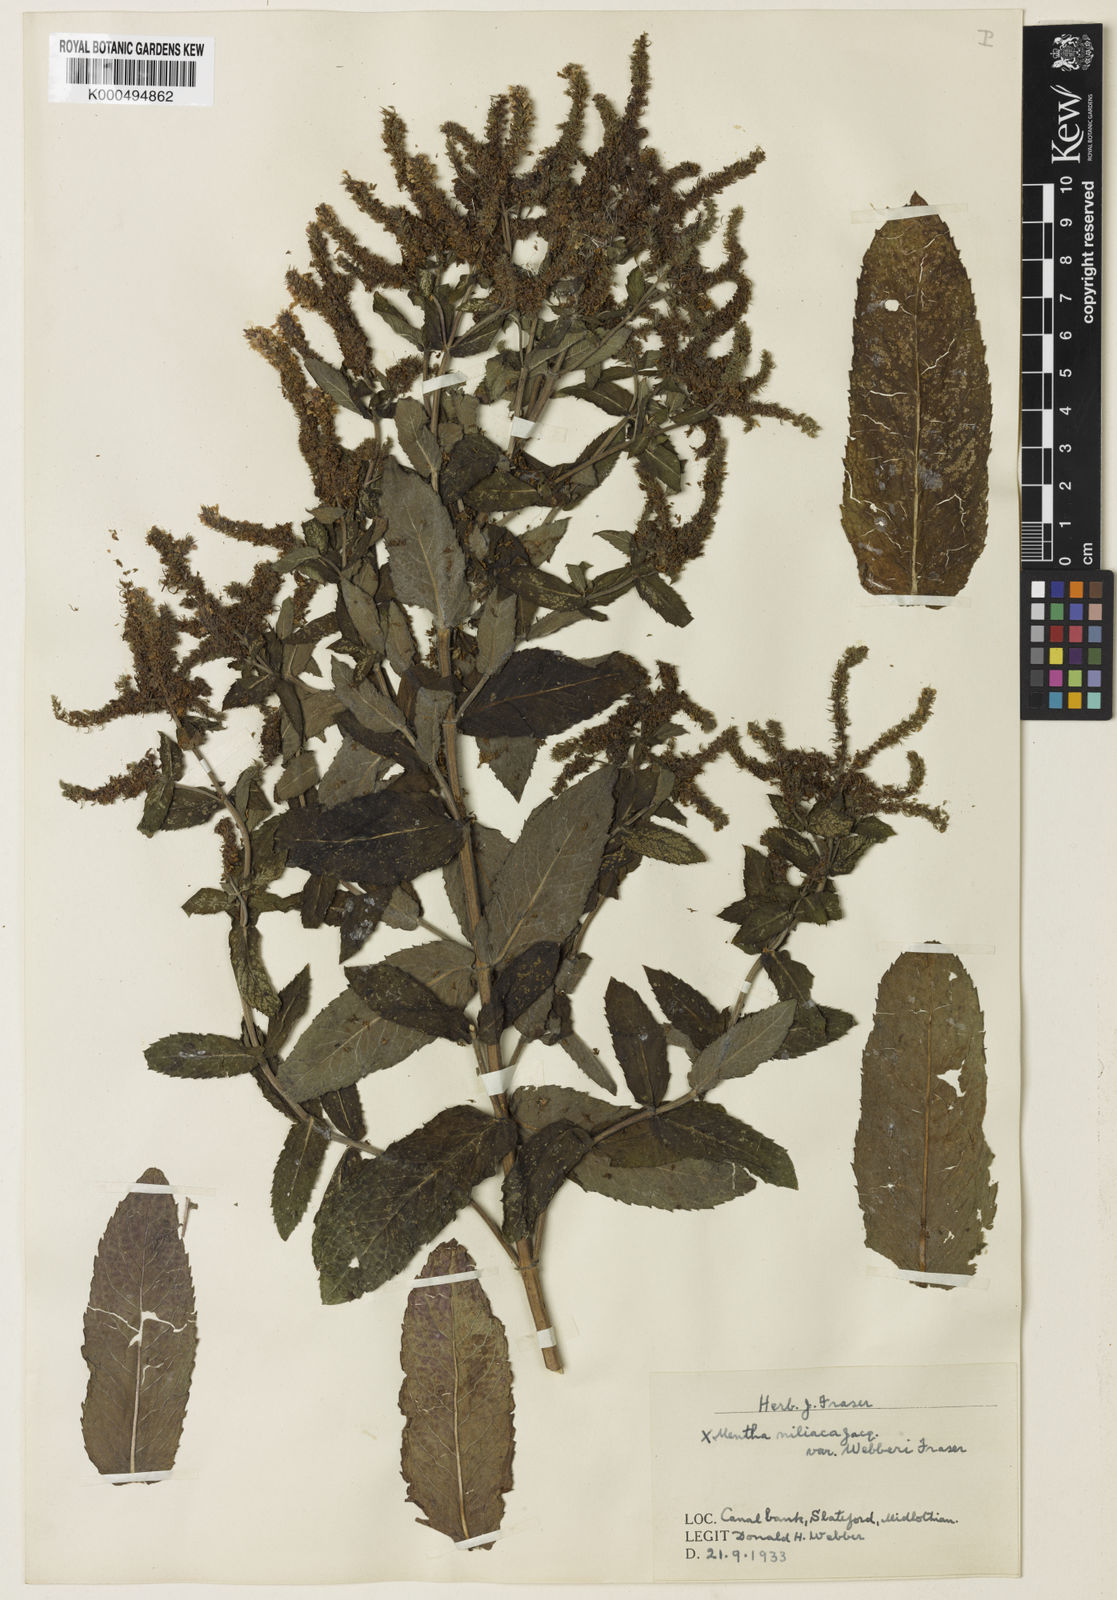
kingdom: Plantae
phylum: Tracheophyta
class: Magnoliopsida
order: Lamiales
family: Lamiaceae
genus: Mentha
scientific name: Mentha villosa
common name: Apple mint
